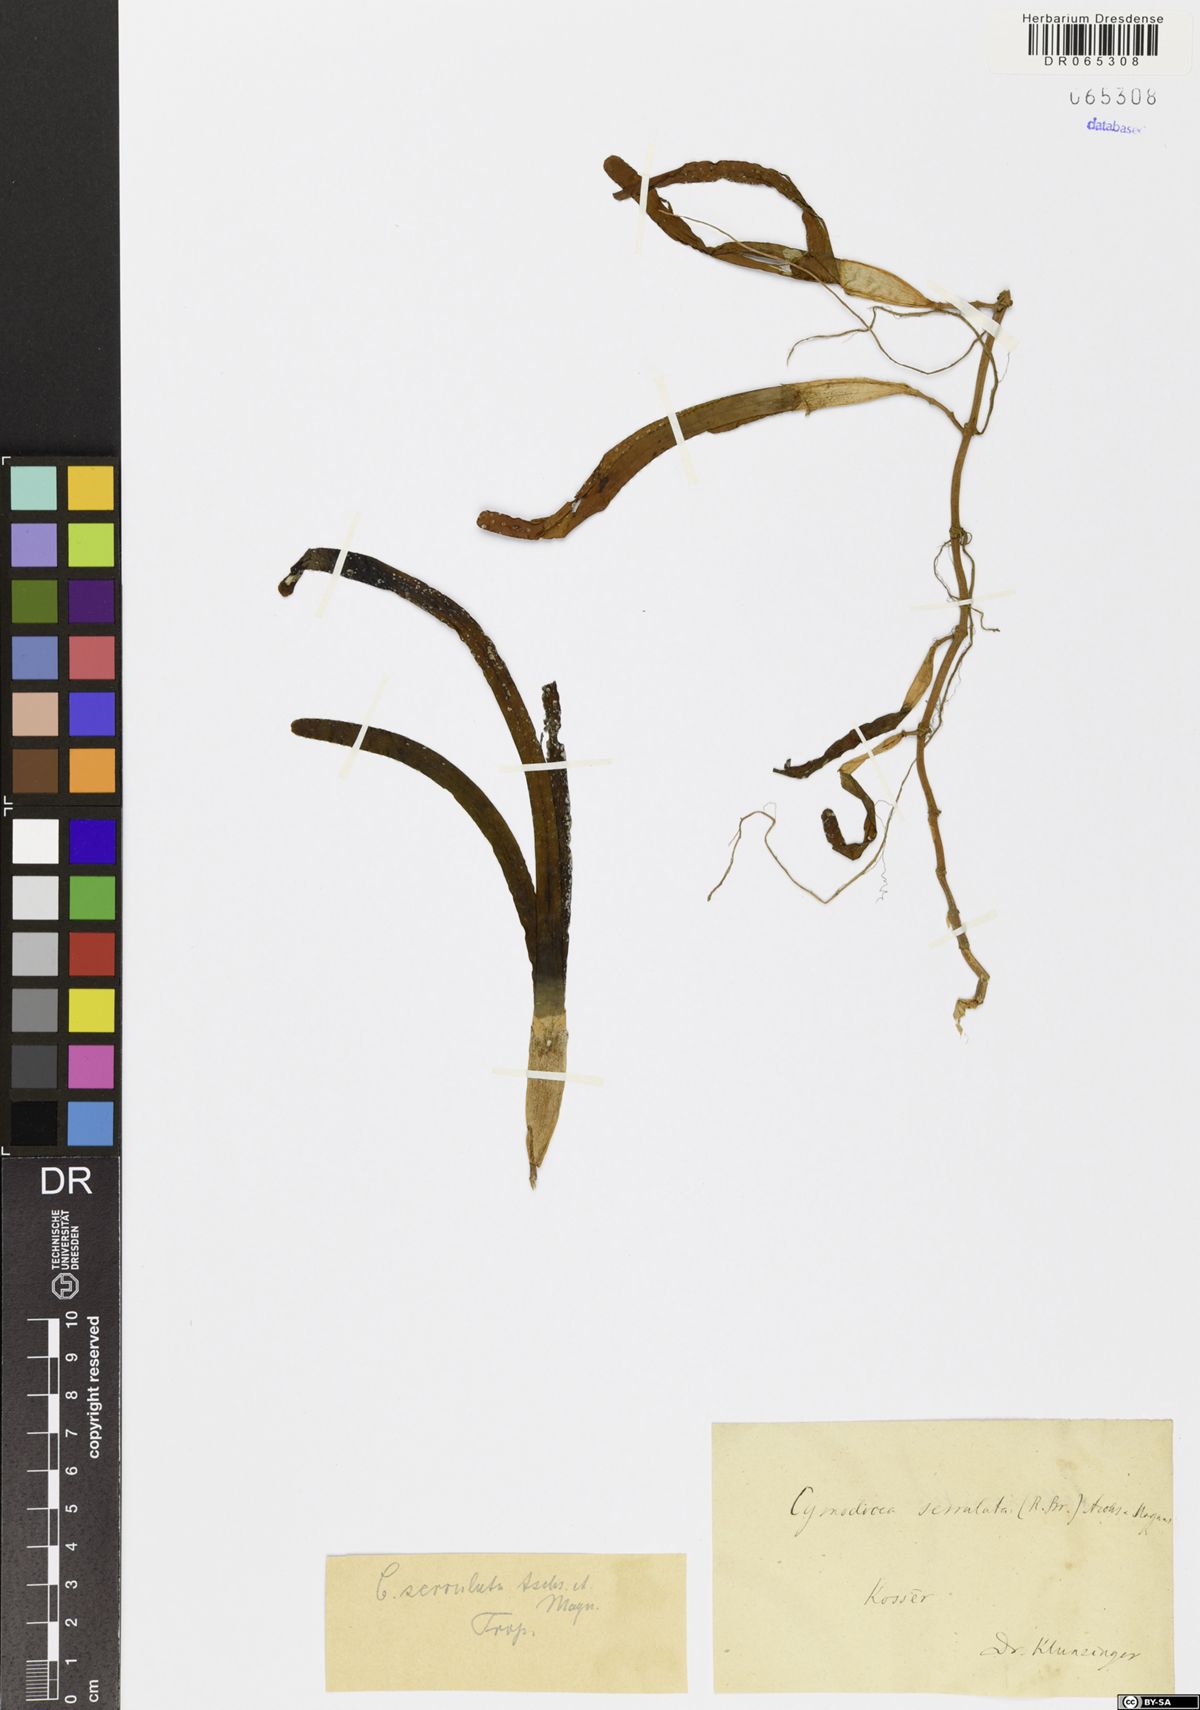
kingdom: Plantae
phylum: Tracheophyta
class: Liliopsida
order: Alismatales
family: Cymodoceaceae
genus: Oceana
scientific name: Oceana serrulata
